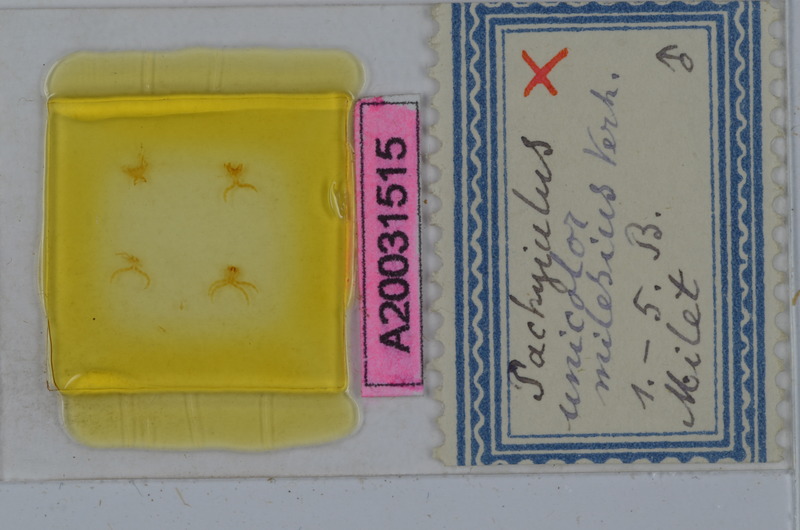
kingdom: Animalia
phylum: Arthropoda
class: Diplopoda
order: Julida
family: Julidae
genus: Pachyiulus
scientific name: Pachyiulus unicolor
